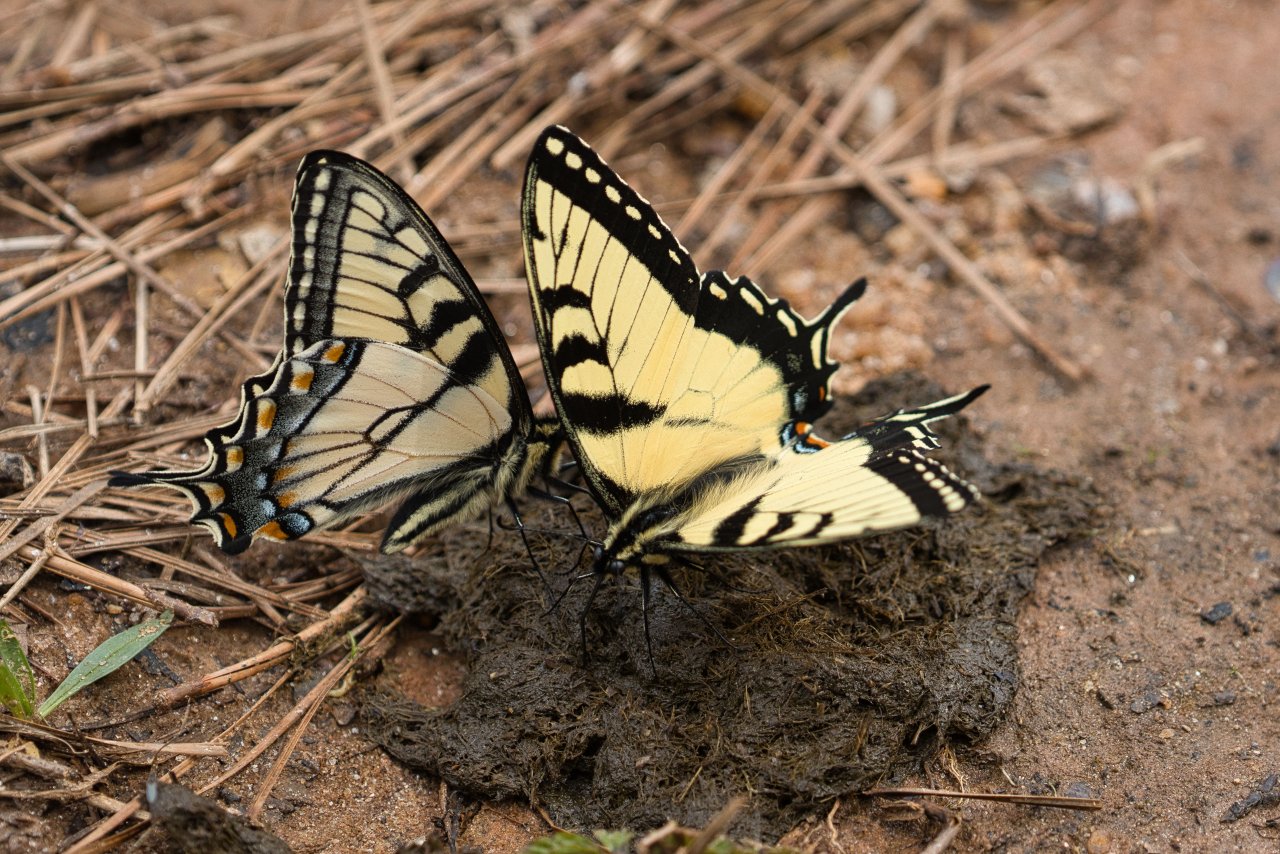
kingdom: Animalia
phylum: Arthropoda
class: Insecta
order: Lepidoptera
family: Papilionidae
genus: Pterourus
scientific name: Pterourus glaucus
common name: Eastern Tiger Swallowtail
